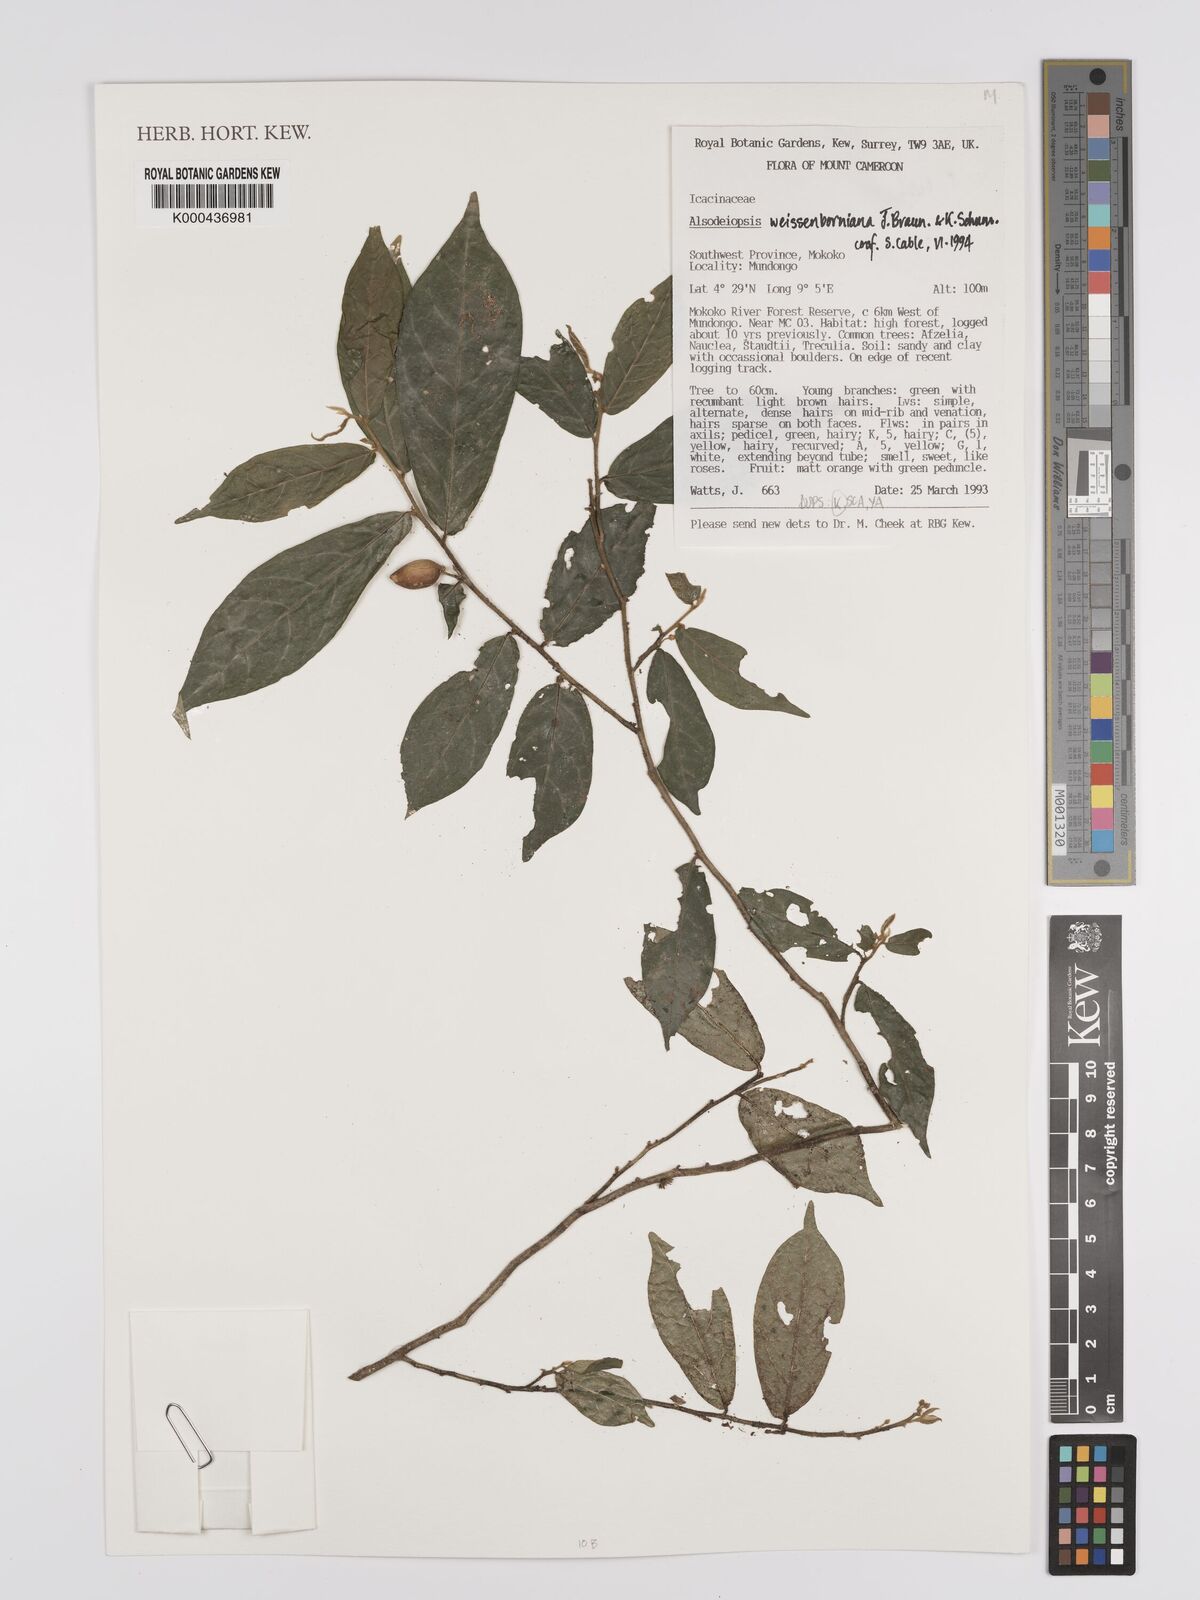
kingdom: Plantae
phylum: Tracheophyta
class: Magnoliopsida
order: Icacinales
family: Icacinaceae
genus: Alsodeiopsis
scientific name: Alsodeiopsis mannii
